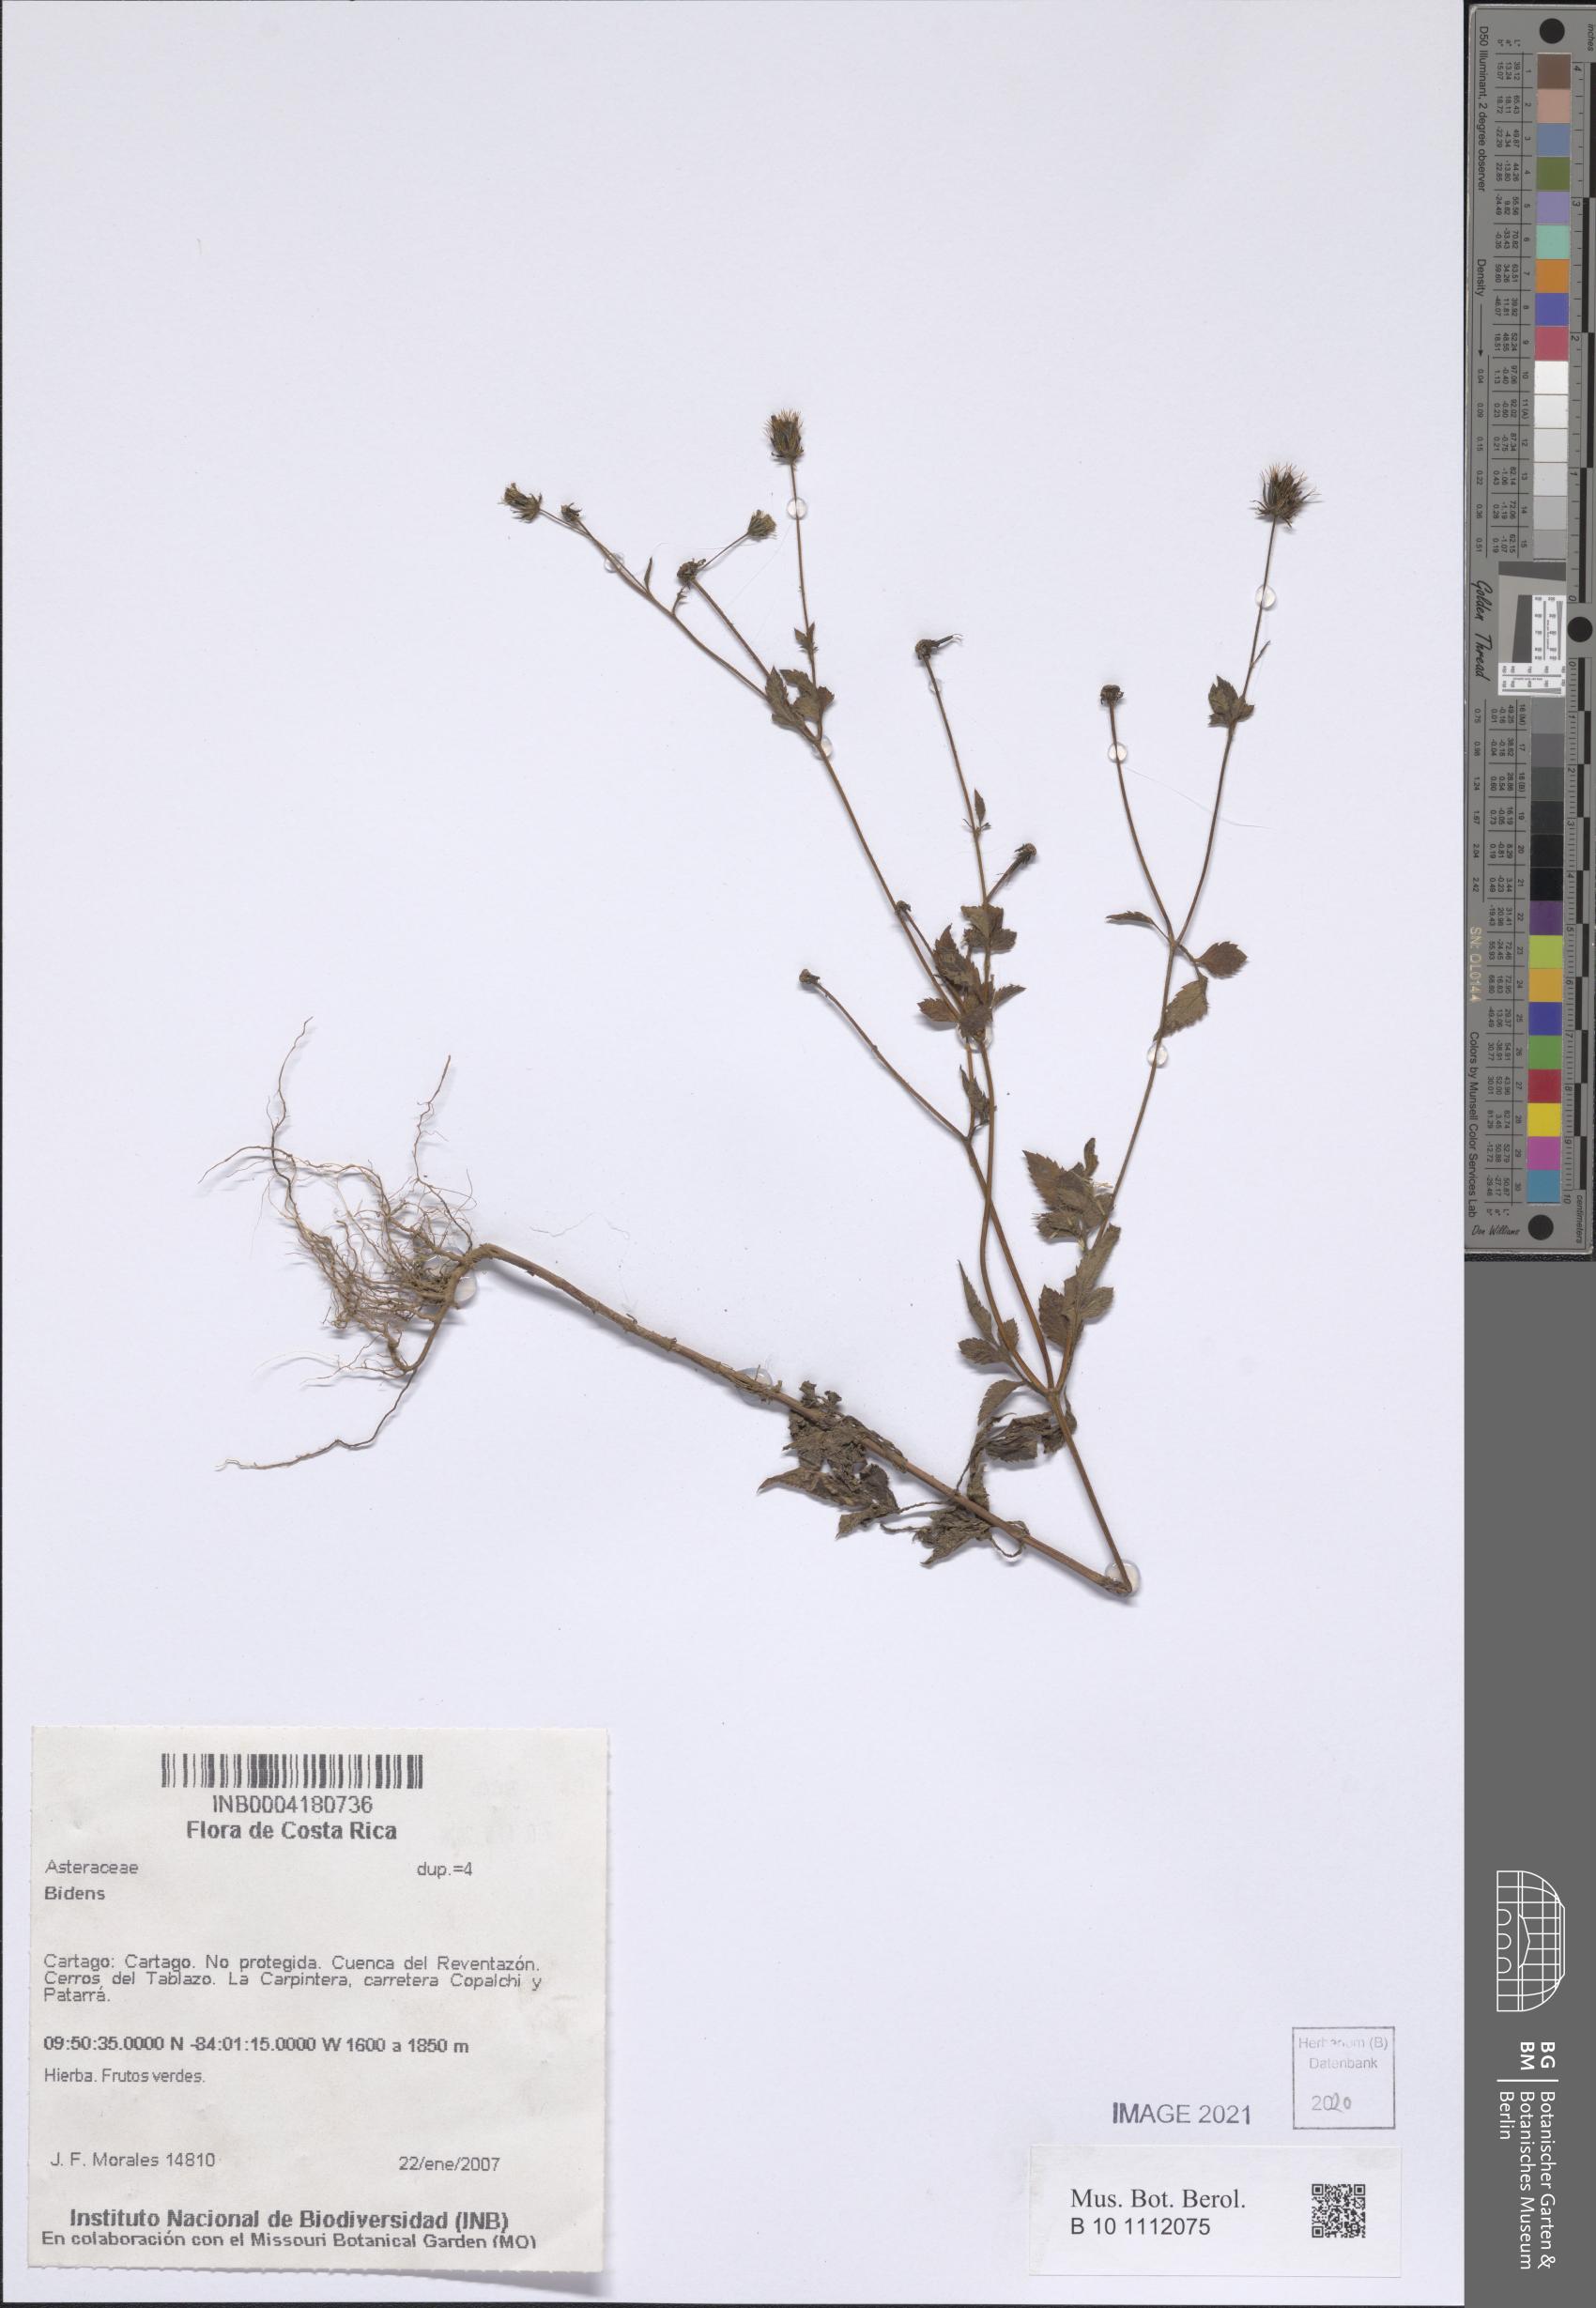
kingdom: Plantae
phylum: Tracheophyta
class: Magnoliopsida
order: Asterales
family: Asteraceae
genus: Bidens
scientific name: Bidens
